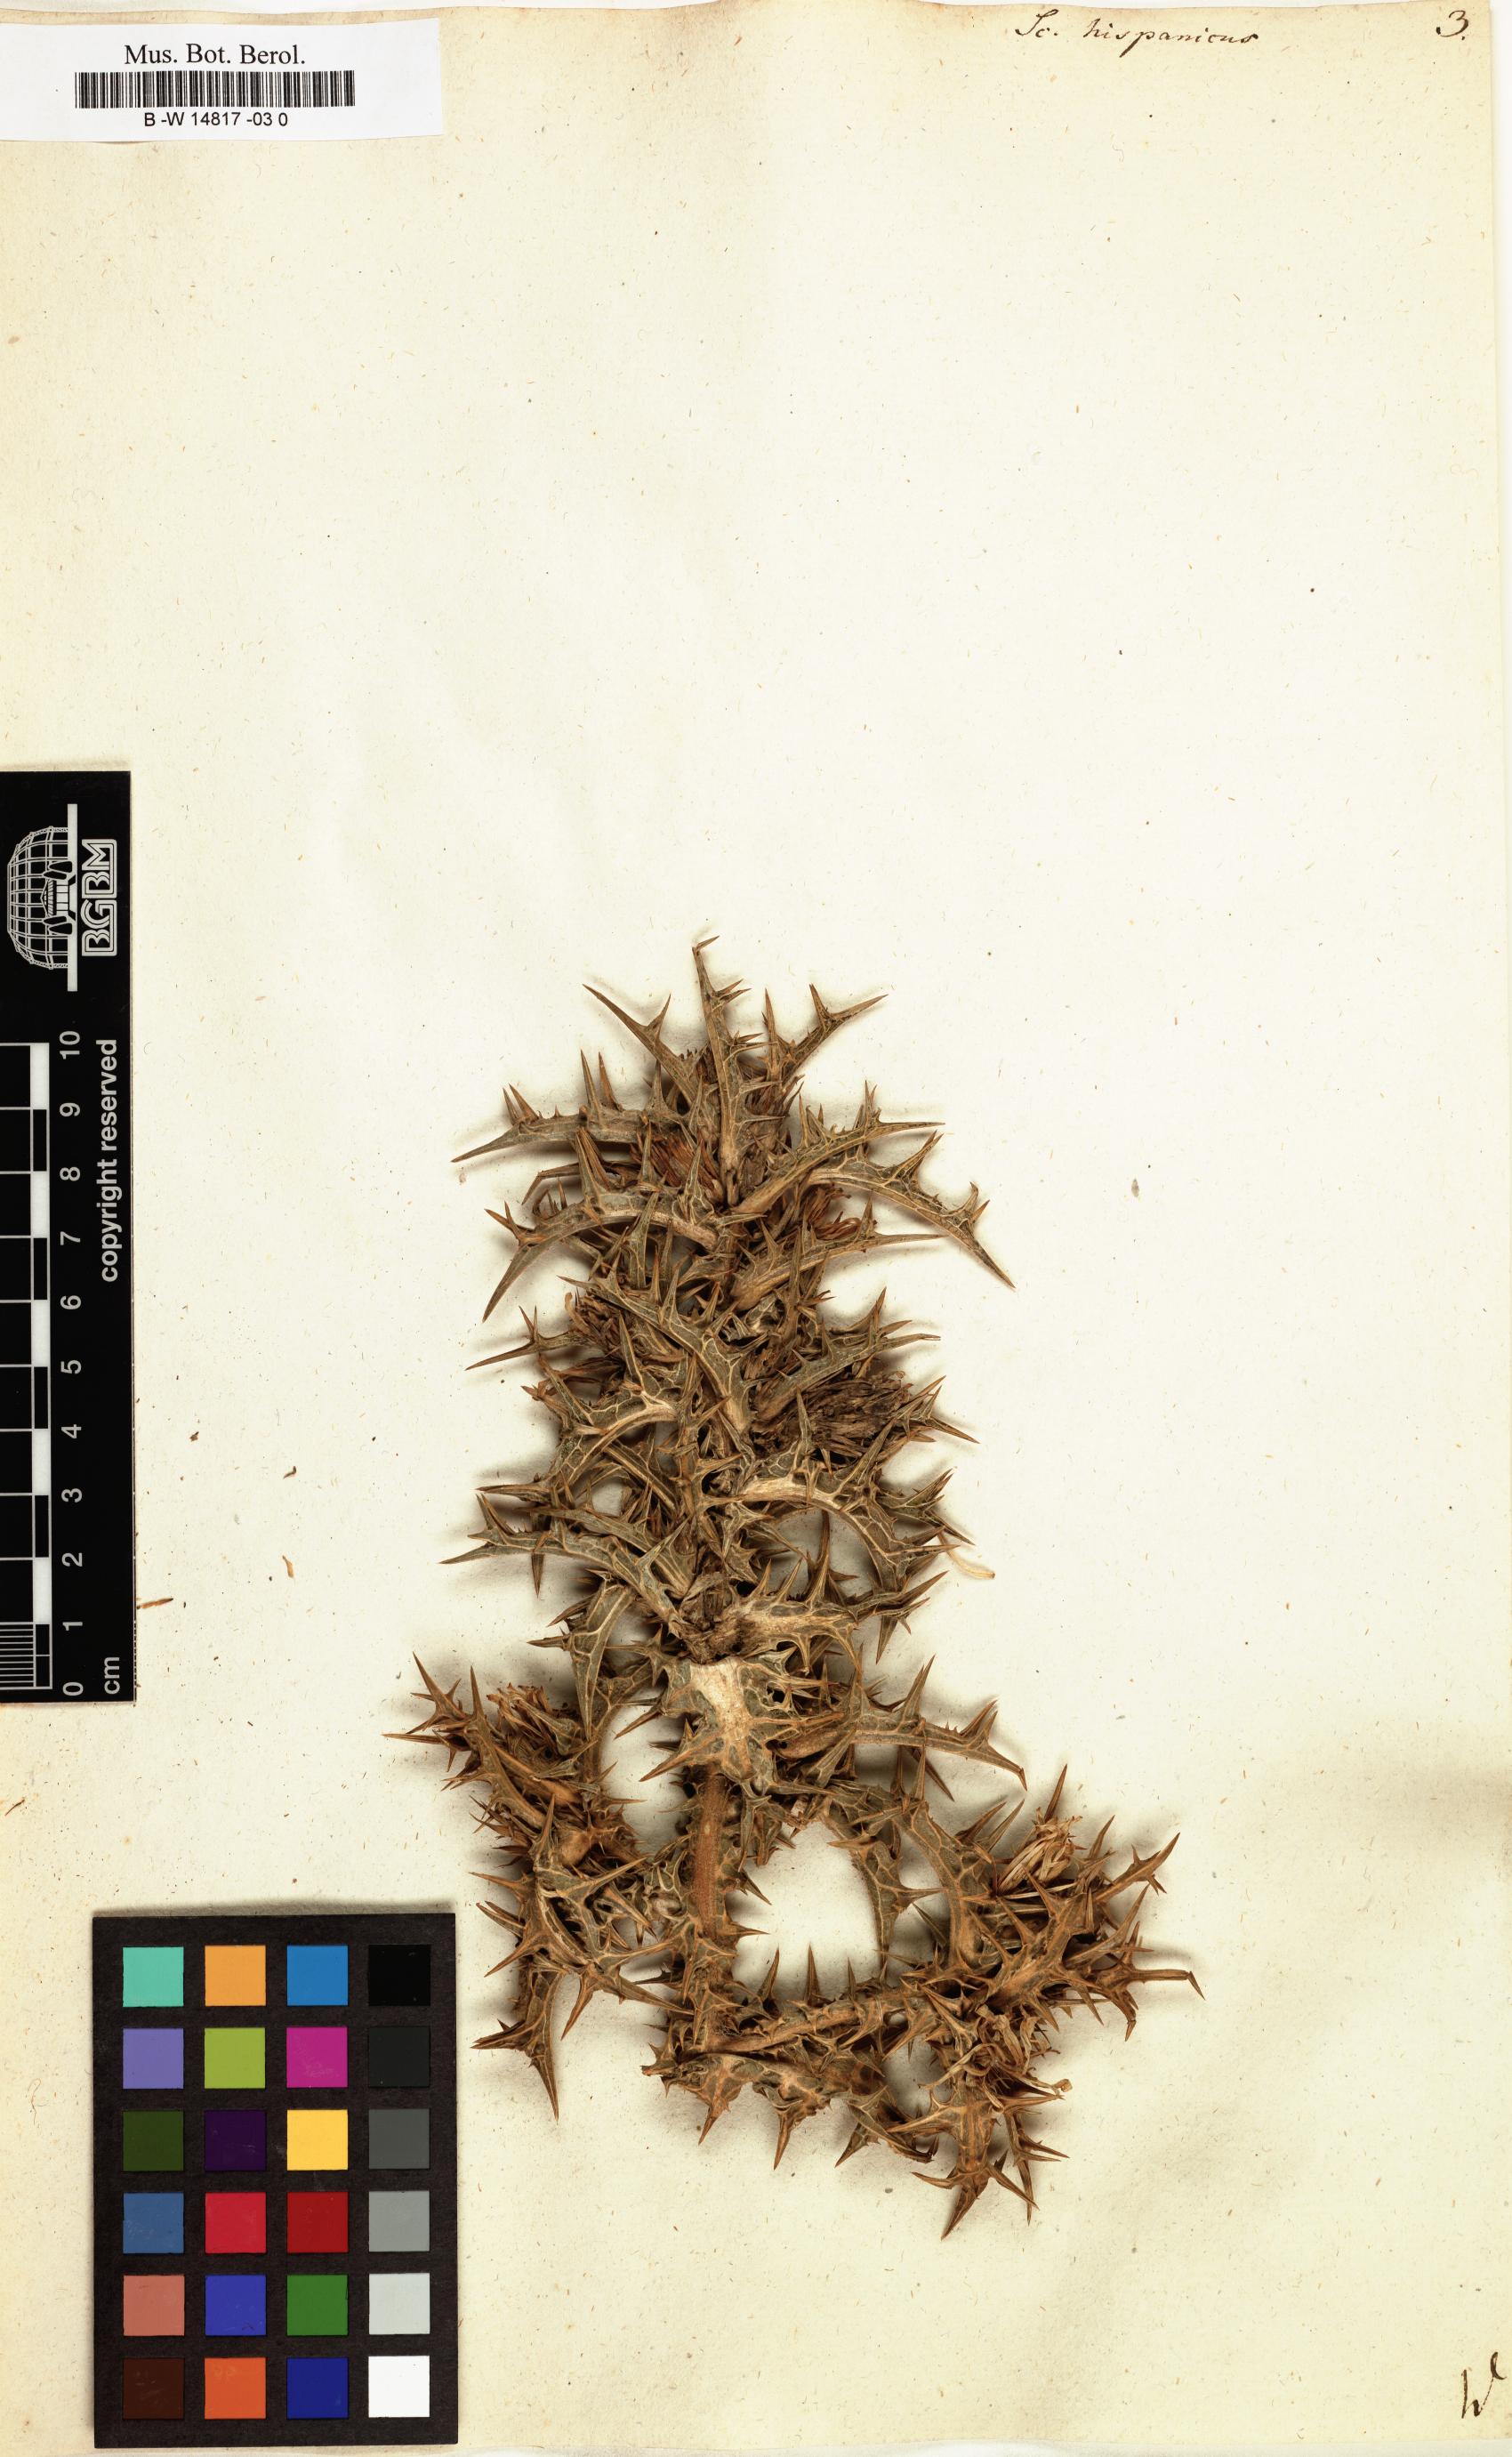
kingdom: Plantae
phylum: Tracheophyta
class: Magnoliopsida
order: Asterales
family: Asteraceae
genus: Scolymus
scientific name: Scolymus hispanicus
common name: Golden thistle
